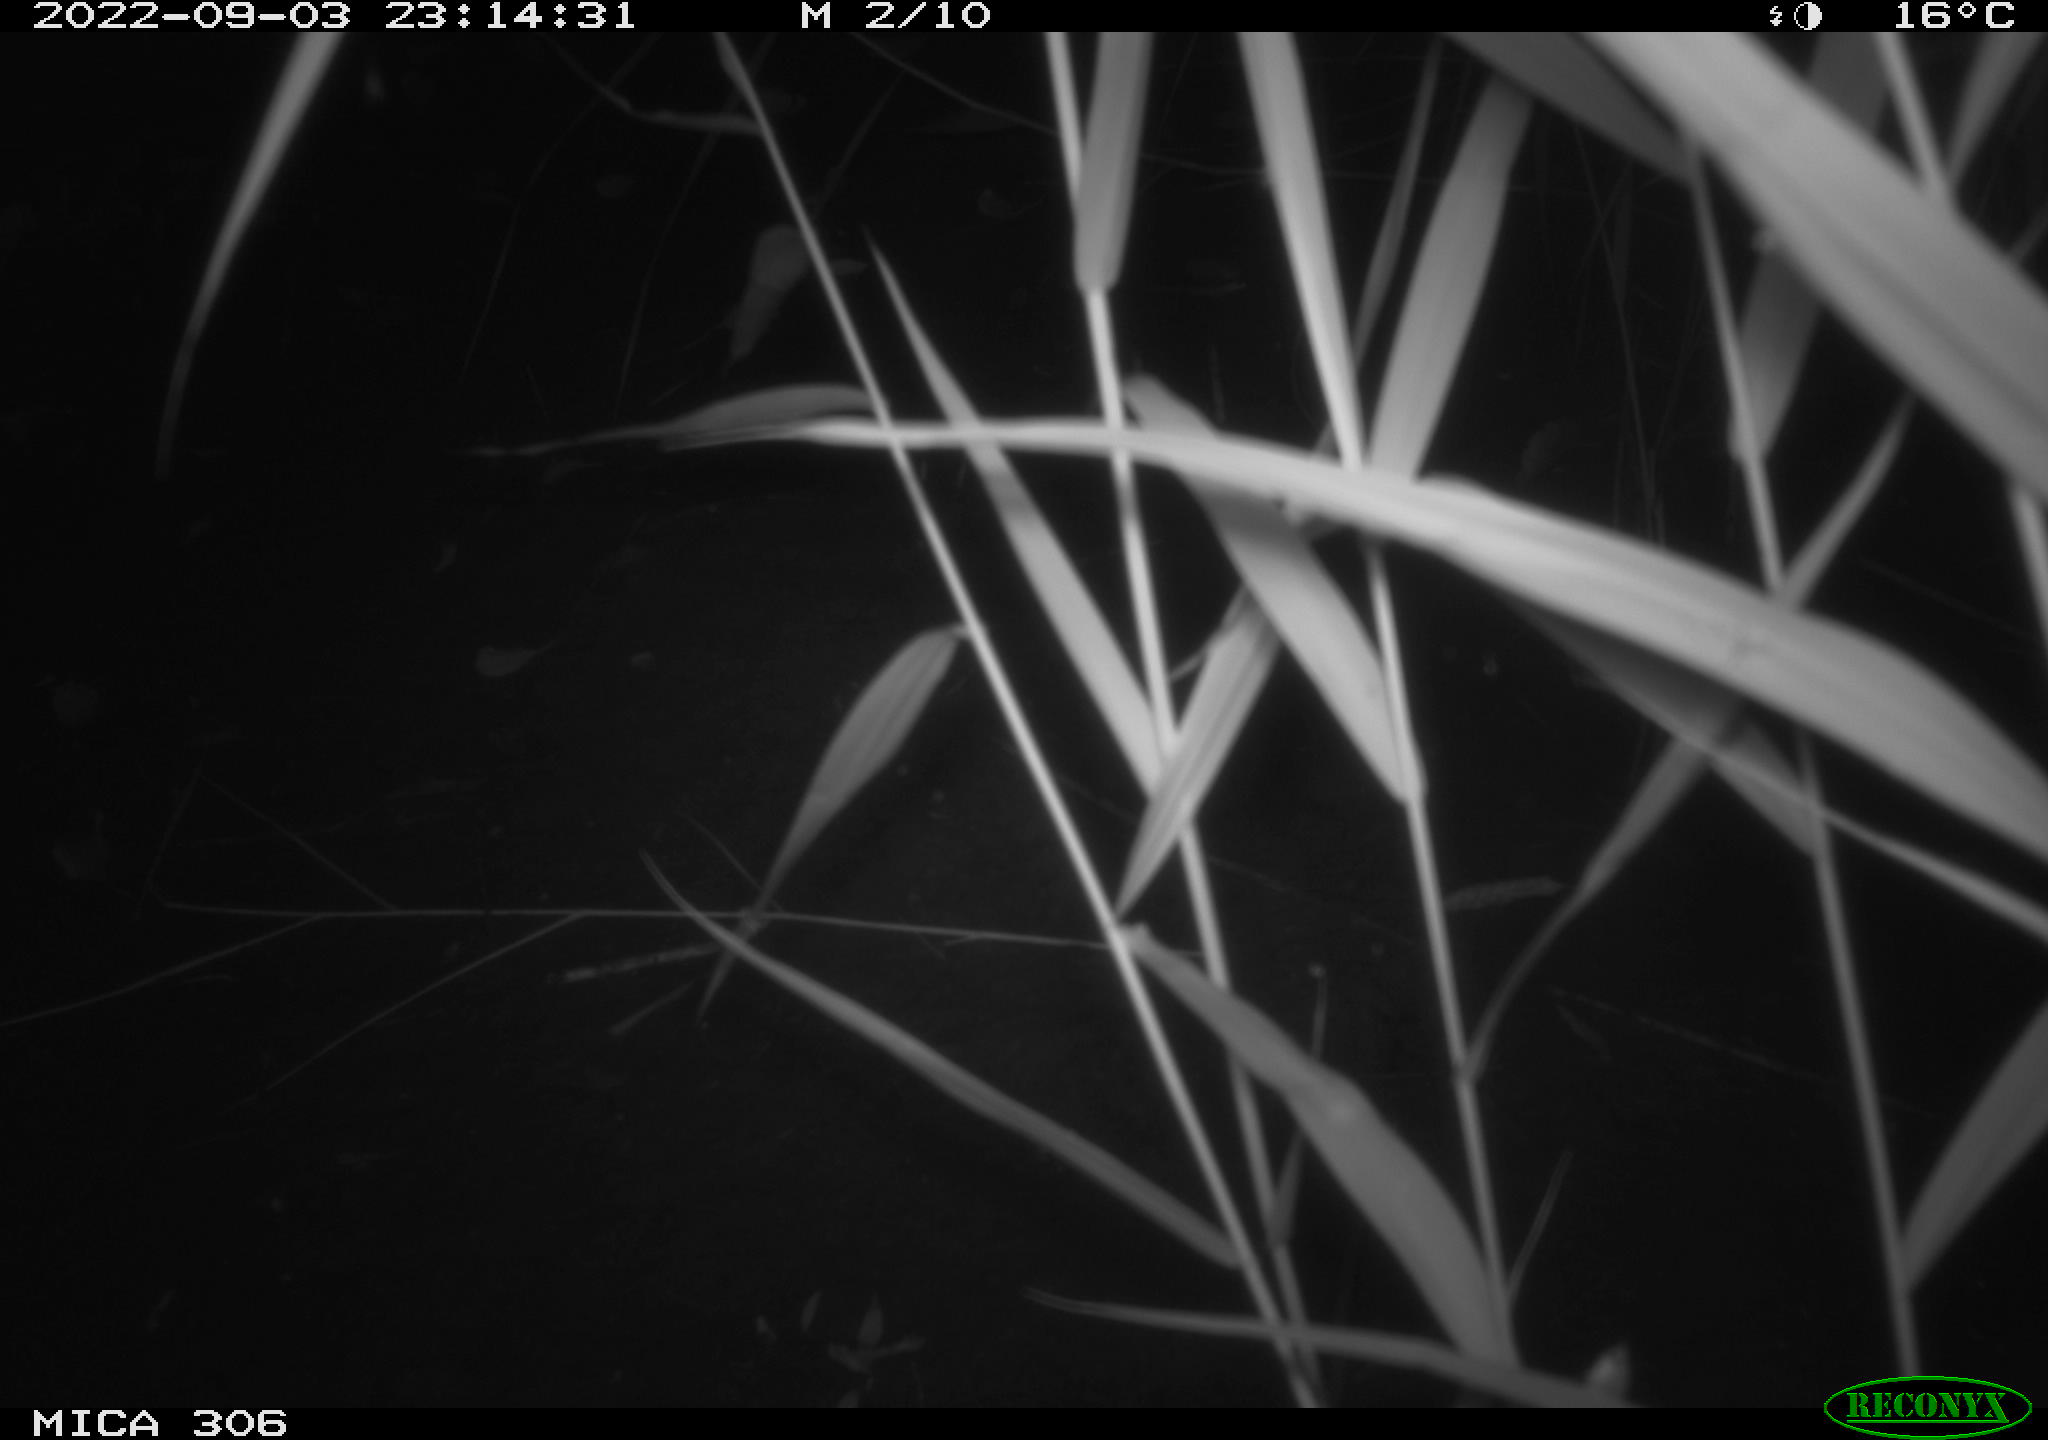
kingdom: Animalia
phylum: Chordata
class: Mammalia
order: Rodentia
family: Muridae
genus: Rattus
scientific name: Rattus norvegicus
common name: Brown rat
